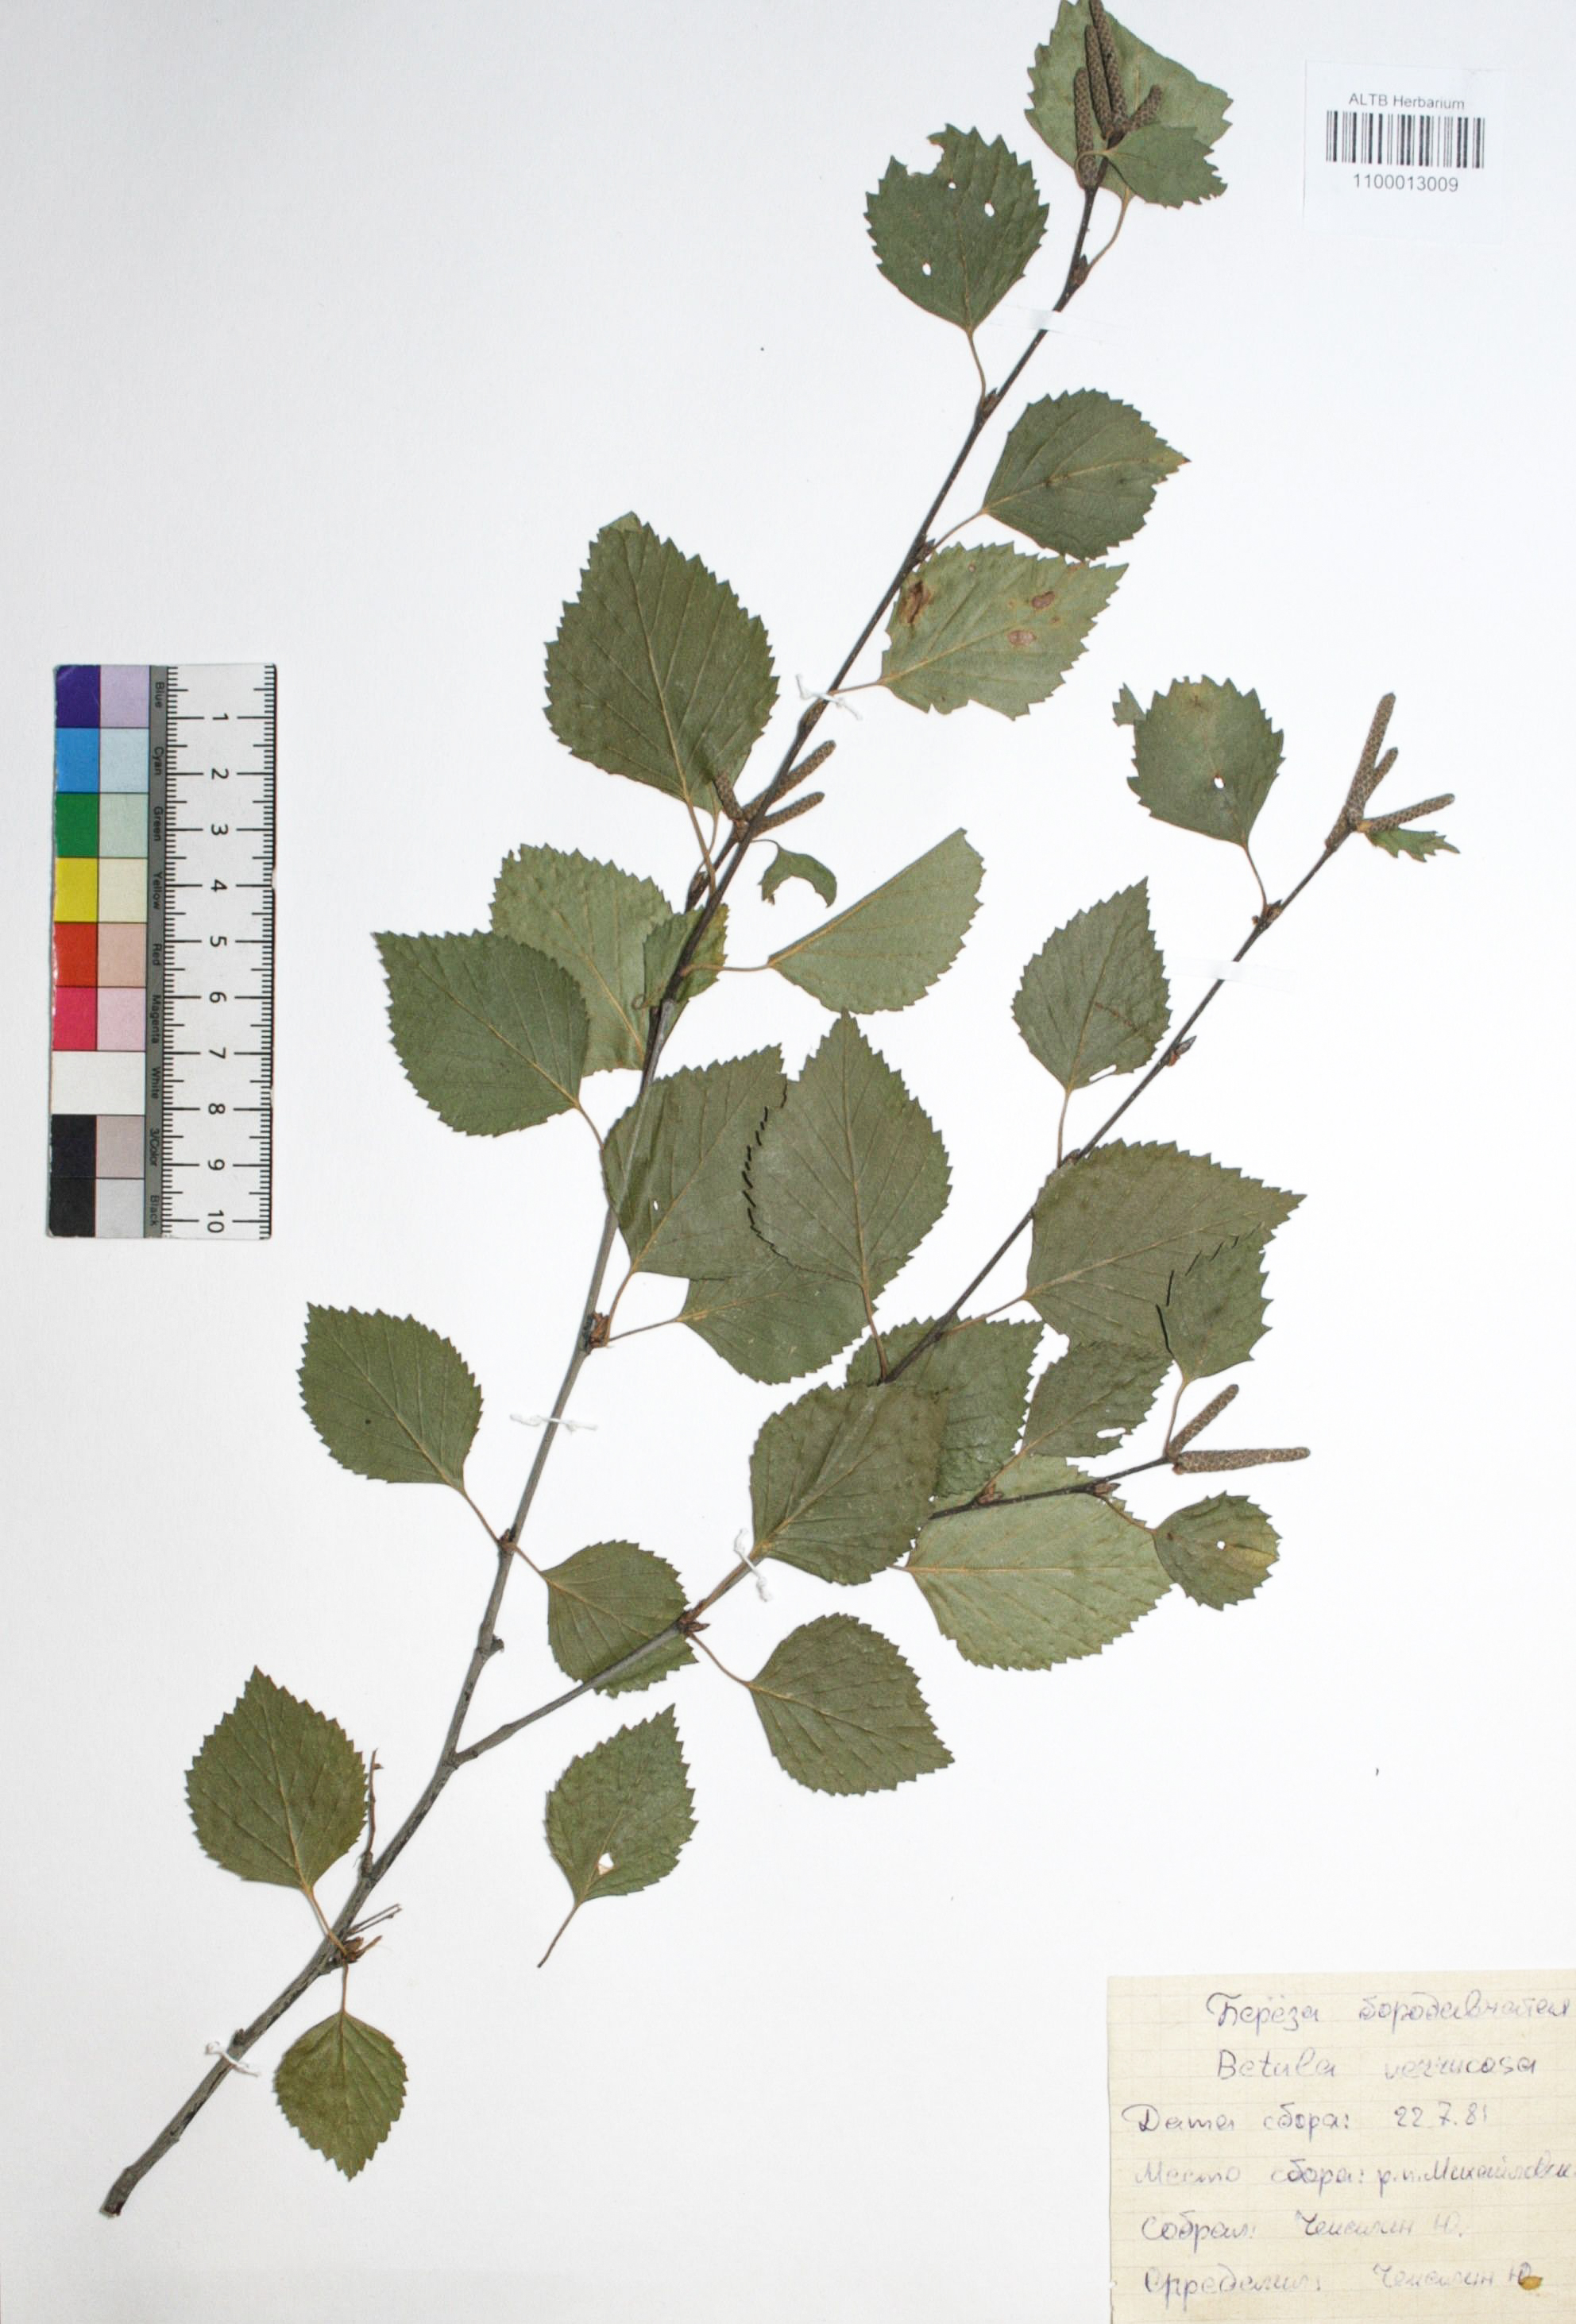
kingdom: Plantae
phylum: Tracheophyta
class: Magnoliopsida
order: Fagales
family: Betulaceae
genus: Betula
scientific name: Betula pendula
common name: Silver birch
